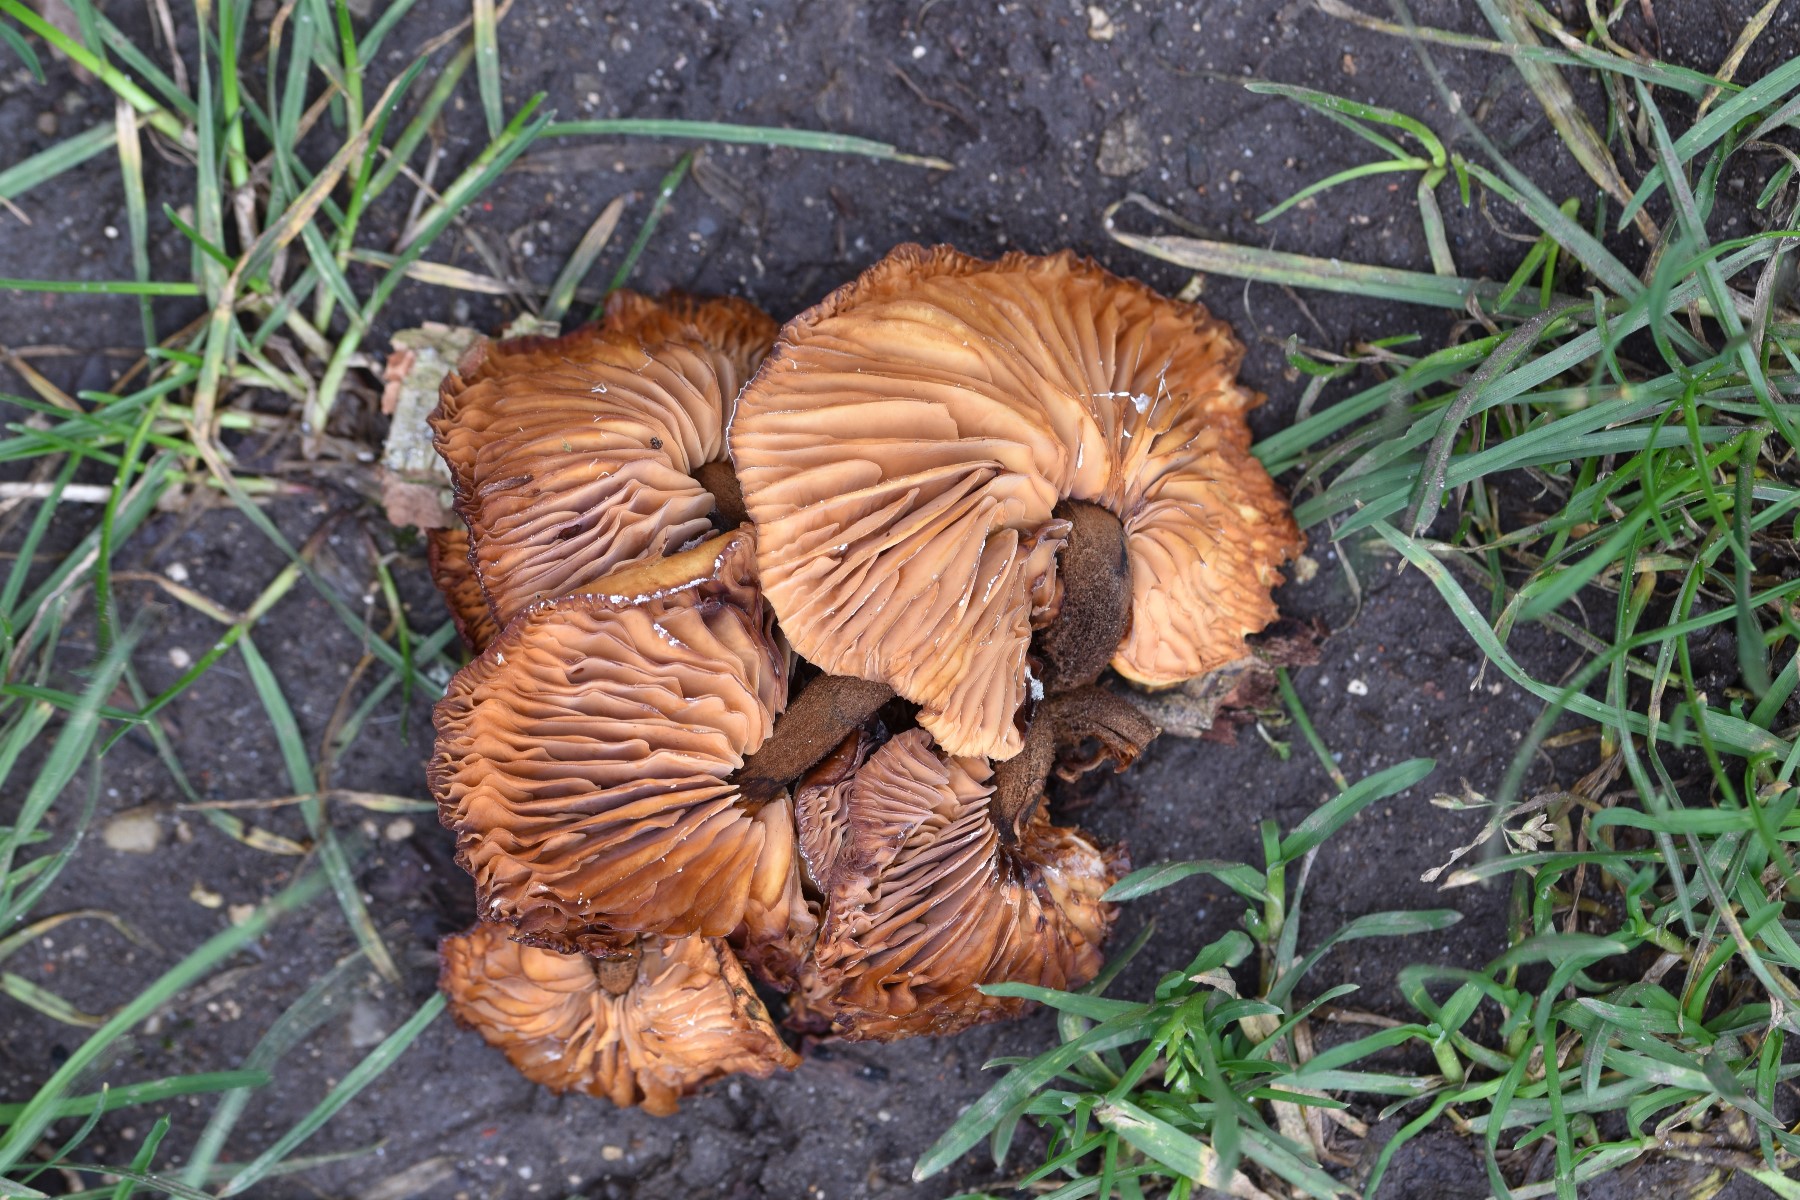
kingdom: Fungi
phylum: Basidiomycota
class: Agaricomycetes
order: Agaricales
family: Physalacriaceae
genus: Flammulina
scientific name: Flammulina elastica
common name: pile-fløjlsfod
